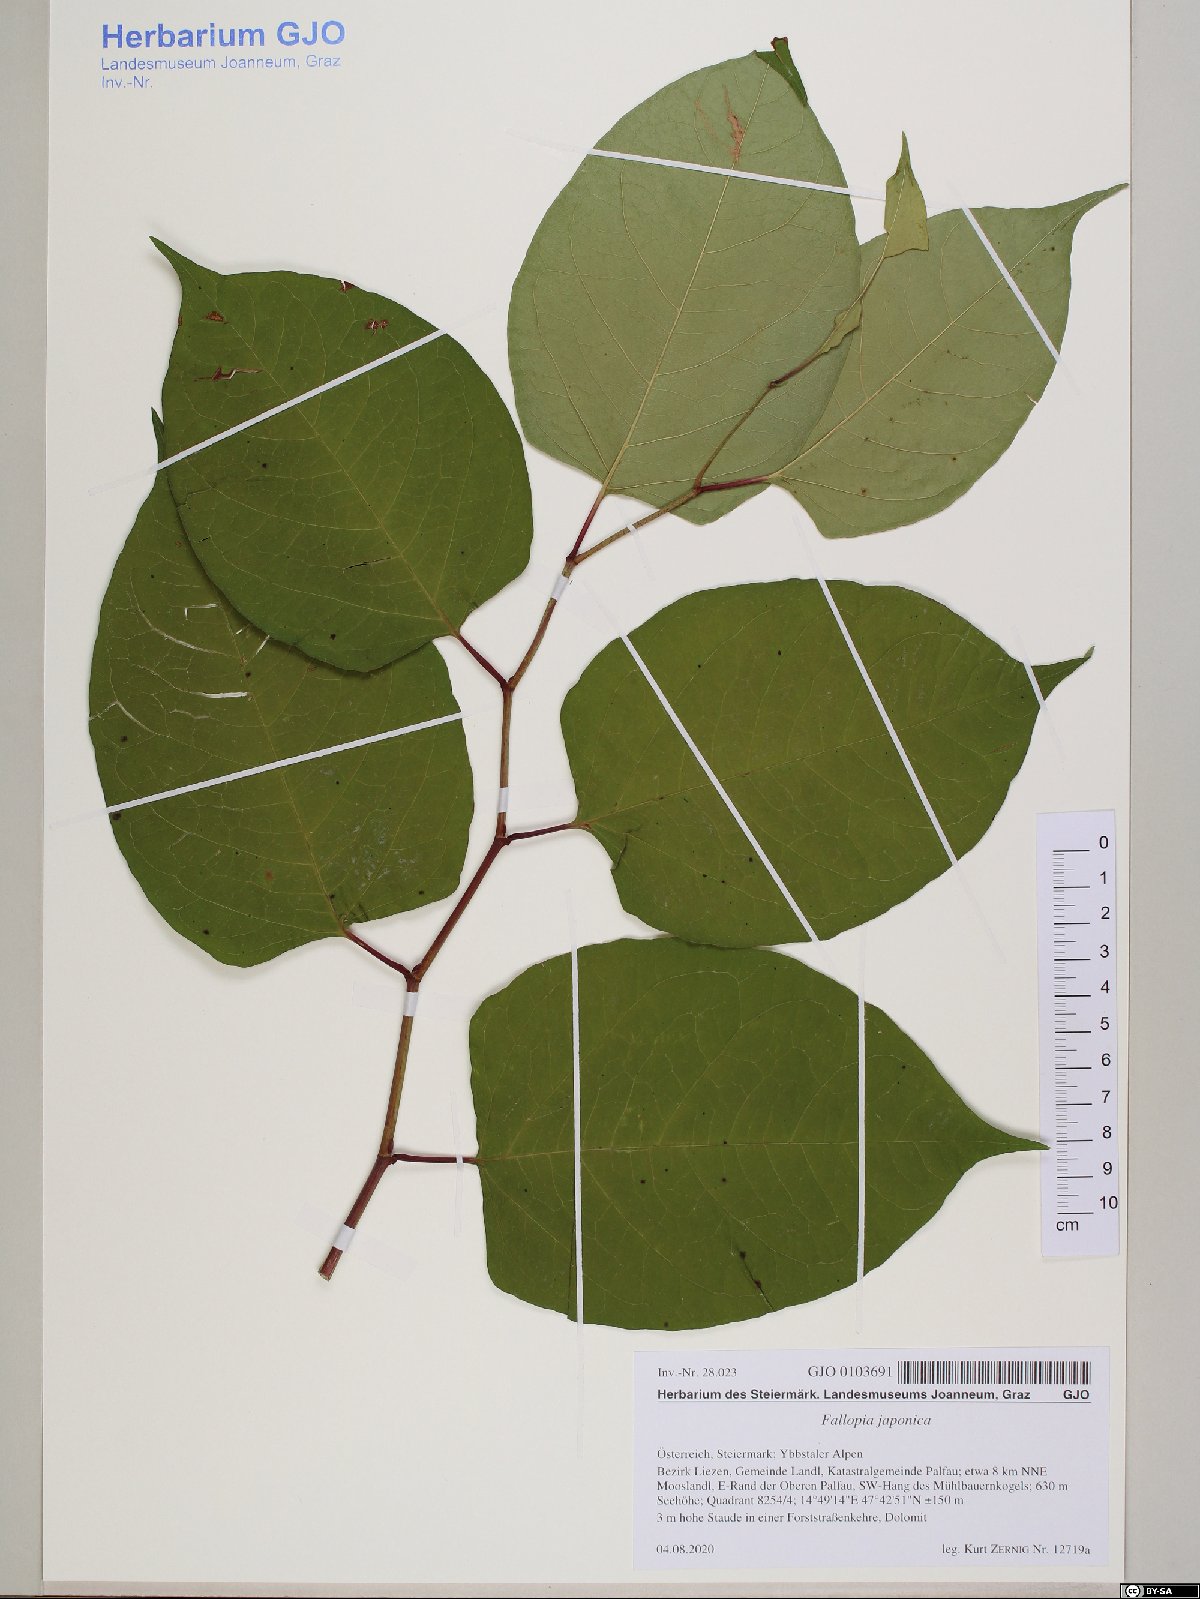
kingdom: Plantae
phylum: Tracheophyta
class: Magnoliopsida
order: Caryophyllales
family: Polygonaceae
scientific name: Polygonaceae
